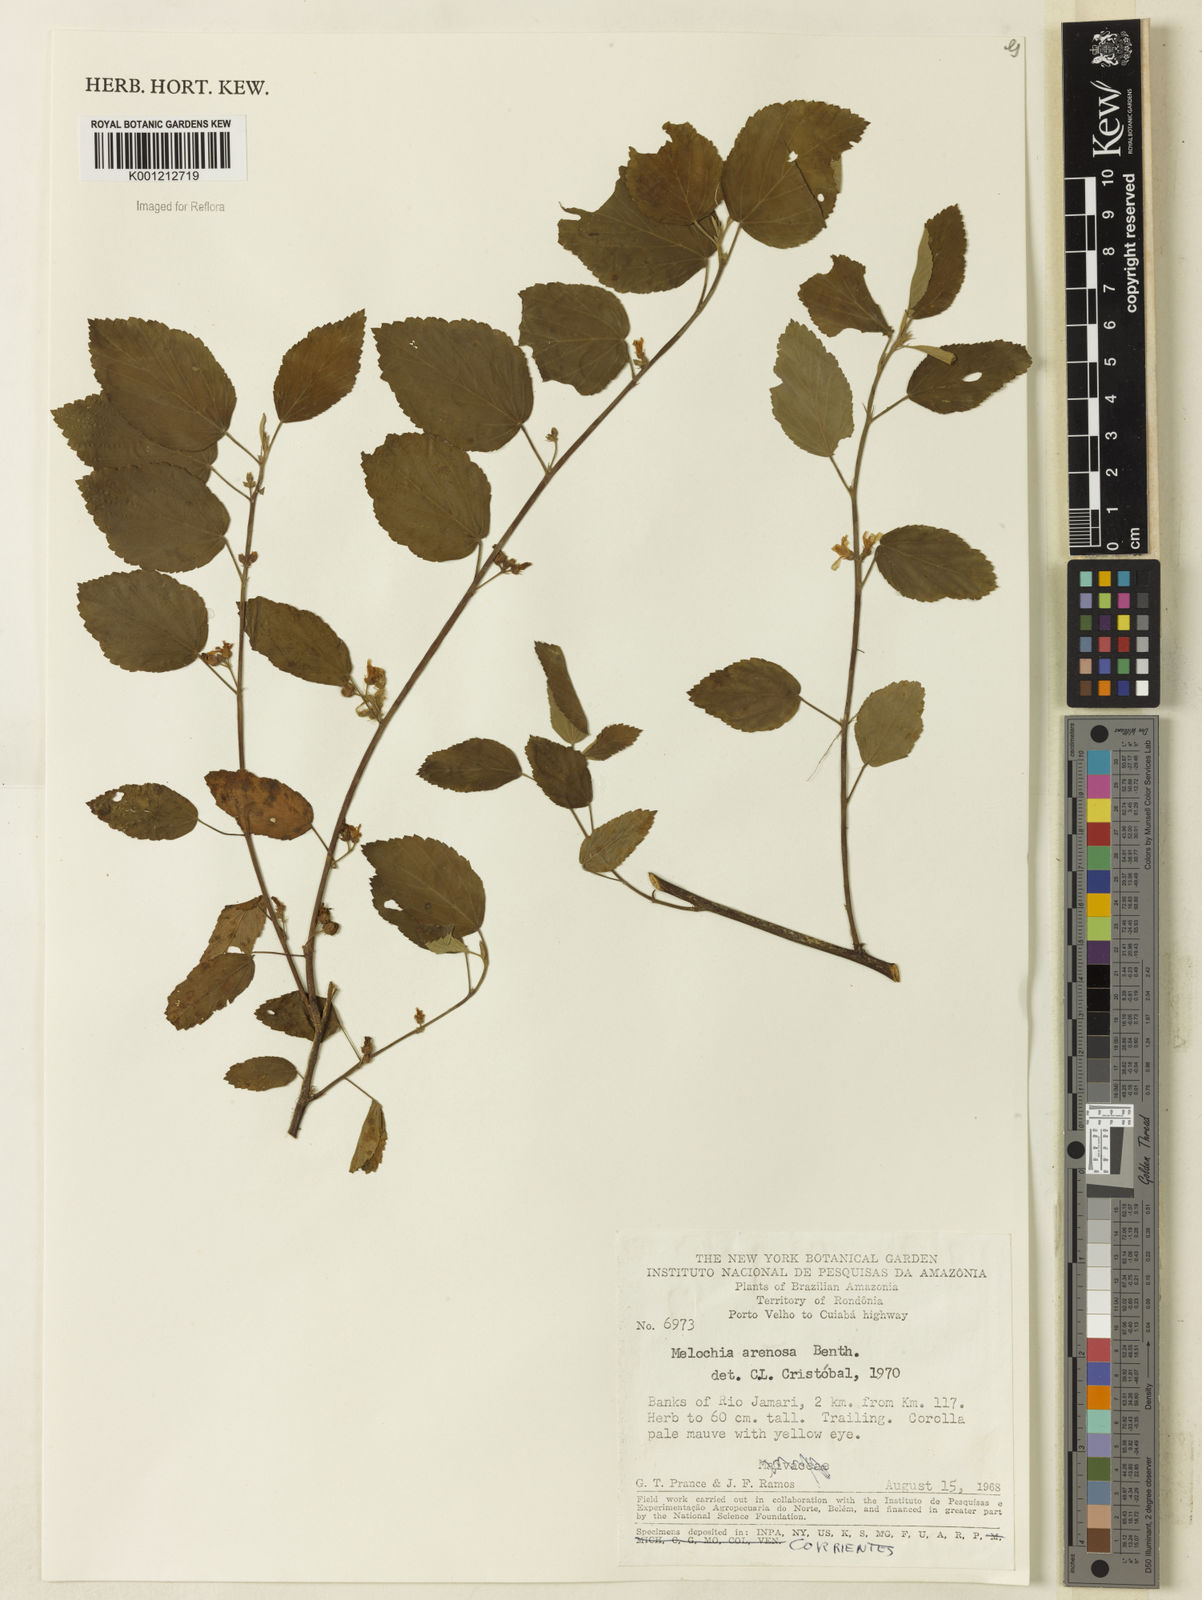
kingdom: Plantae
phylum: Tracheophyta
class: Magnoliopsida
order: Malvales
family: Malvaceae
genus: Melochia
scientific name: Melochia arenosa
